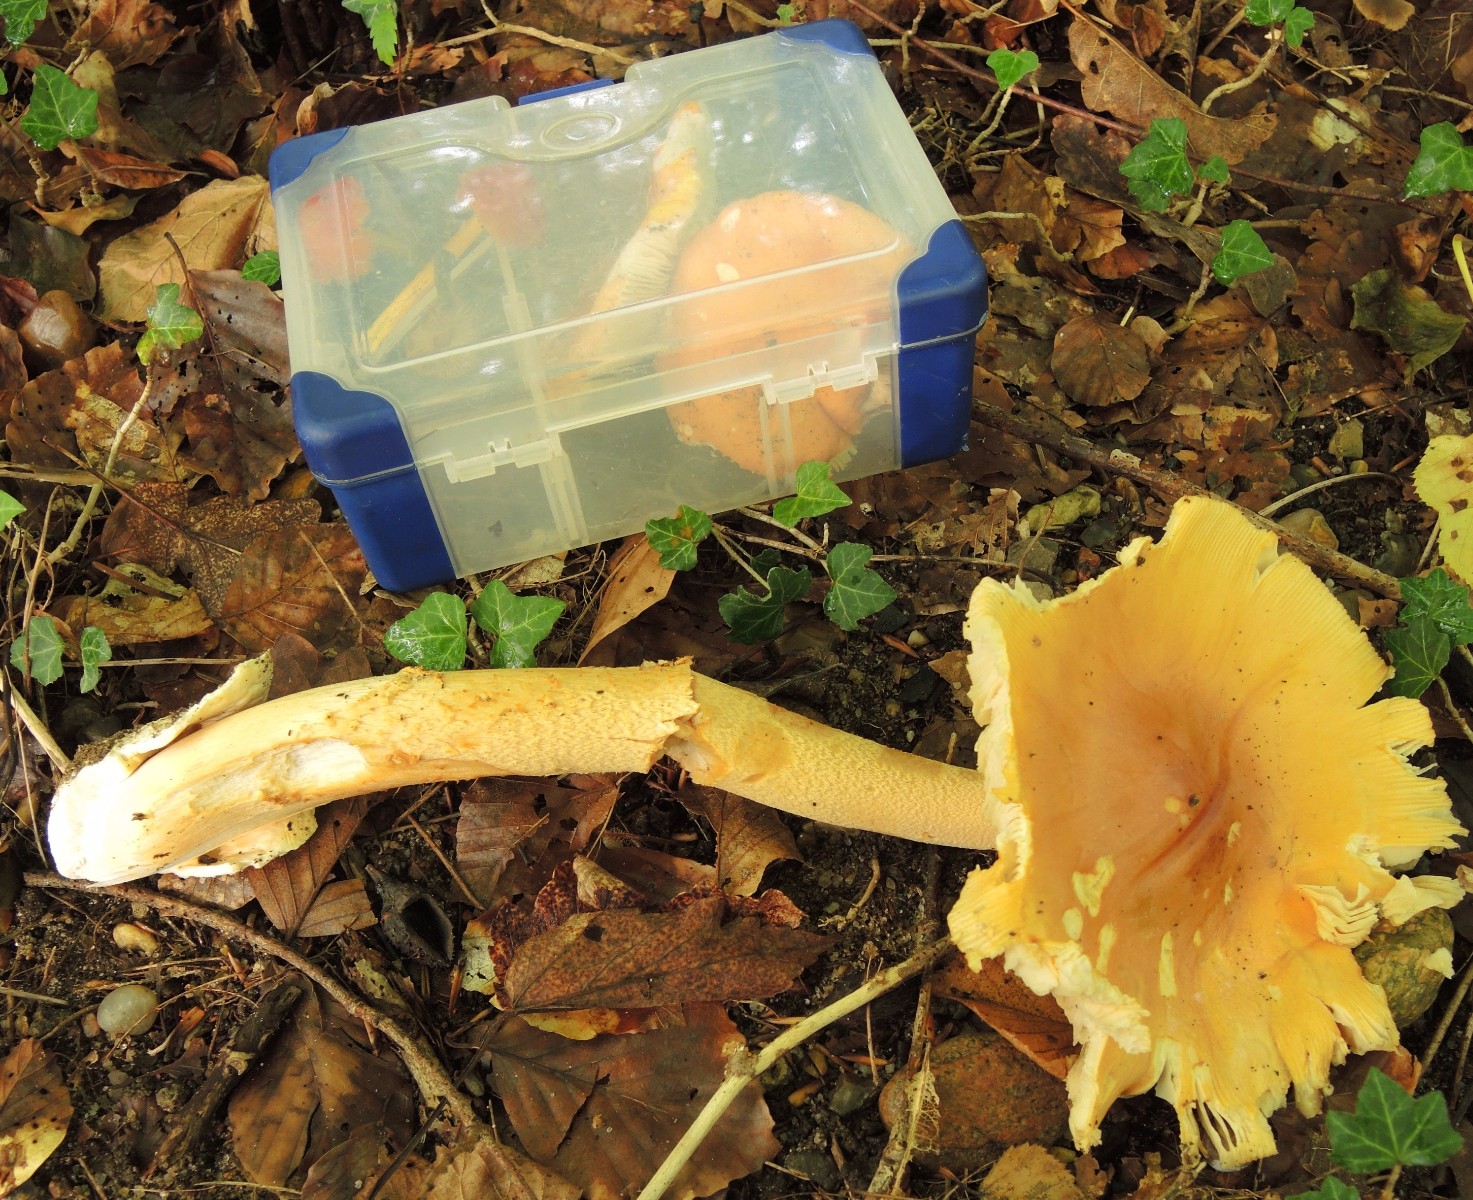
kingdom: Fungi
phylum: Basidiomycota
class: Agaricomycetes
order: Agaricales
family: Amanitaceae
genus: Amanita
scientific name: Amanita crocea
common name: gylden kam-fluesvamp
